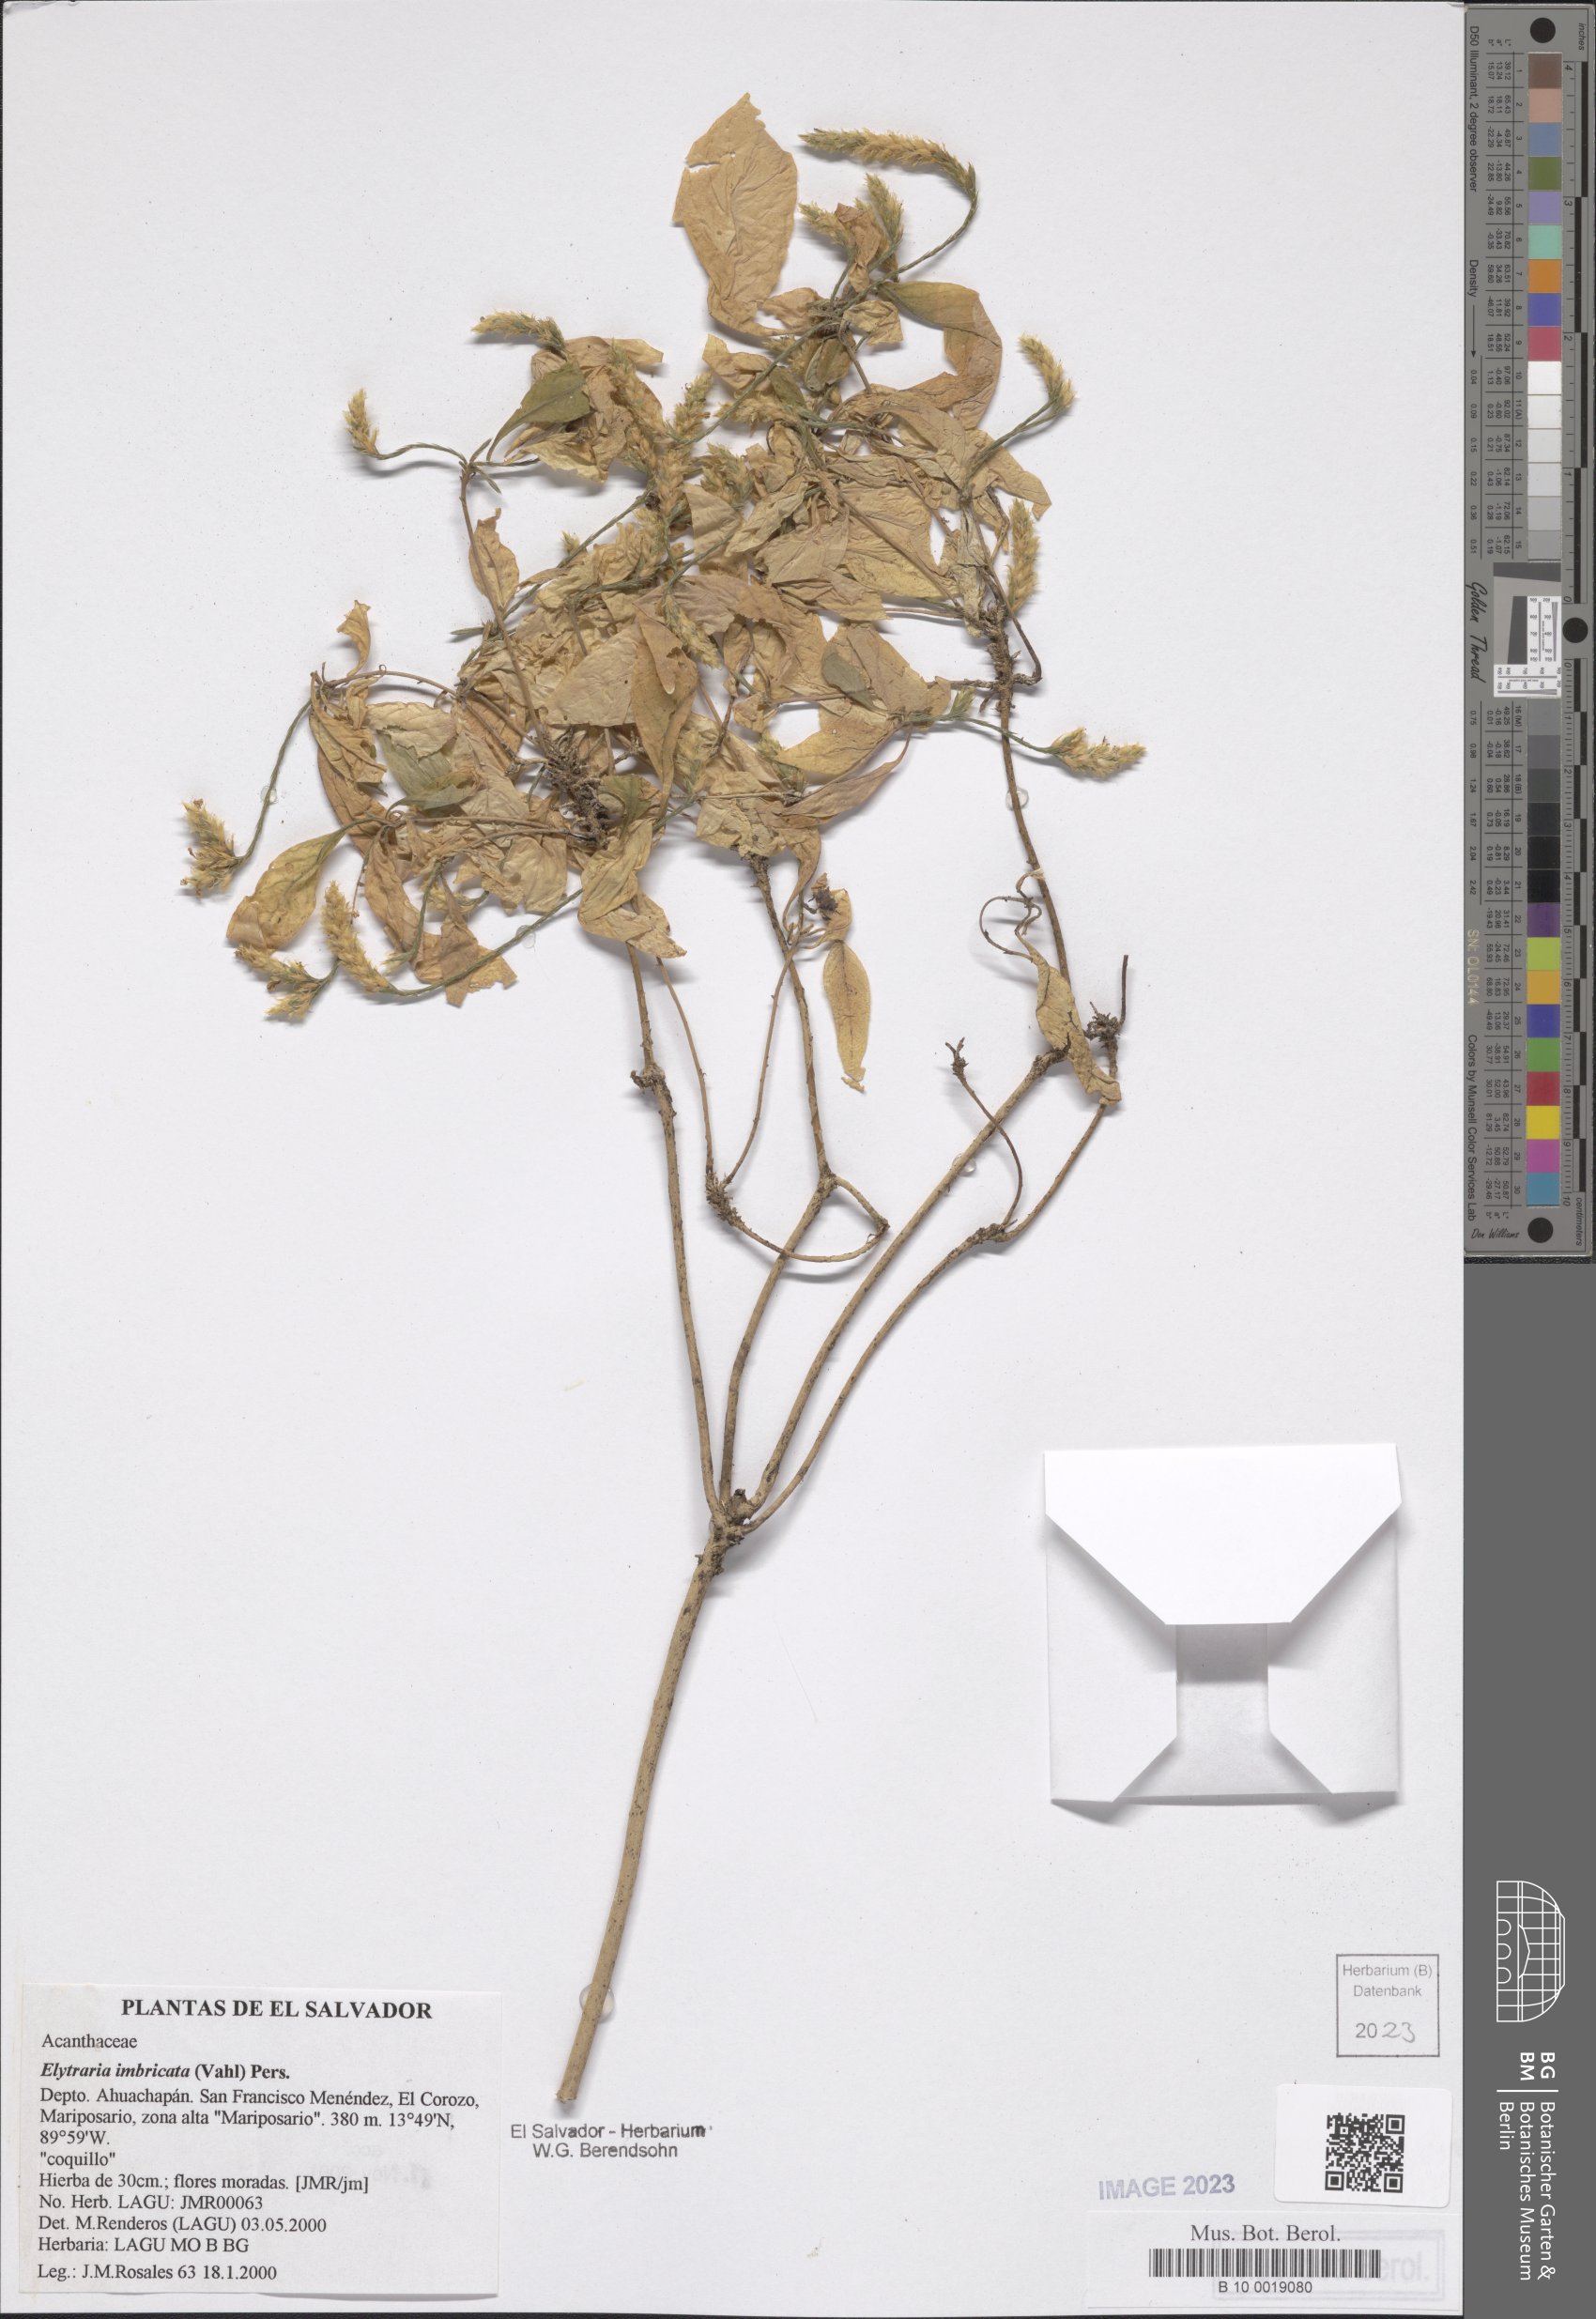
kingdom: Plantae
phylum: Tracheophyta
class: Magnoliopsida
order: Lamiales
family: Acanthaceae
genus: Elytraria
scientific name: Elytraria imbricata
